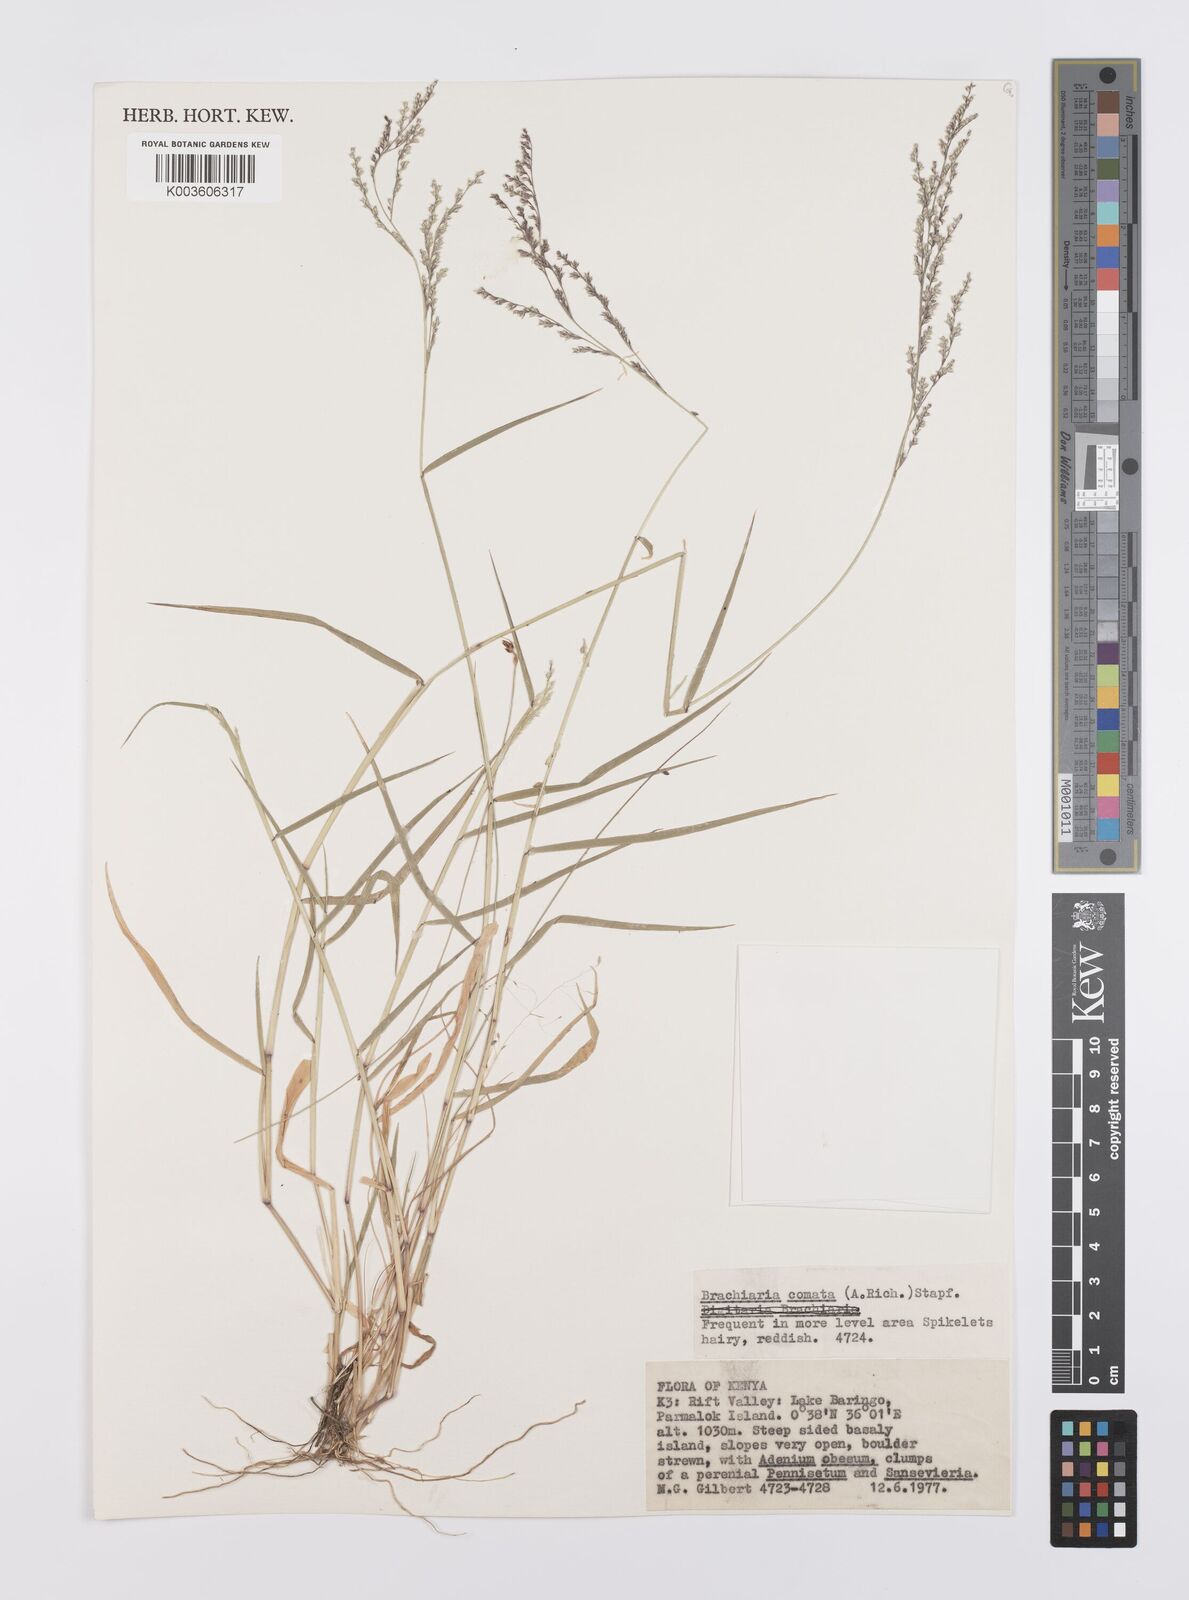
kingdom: Plantae
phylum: Tracheophyta
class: Liliopsida
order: Poales
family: Poaceae
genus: Urochloa
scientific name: Urochloa comata
